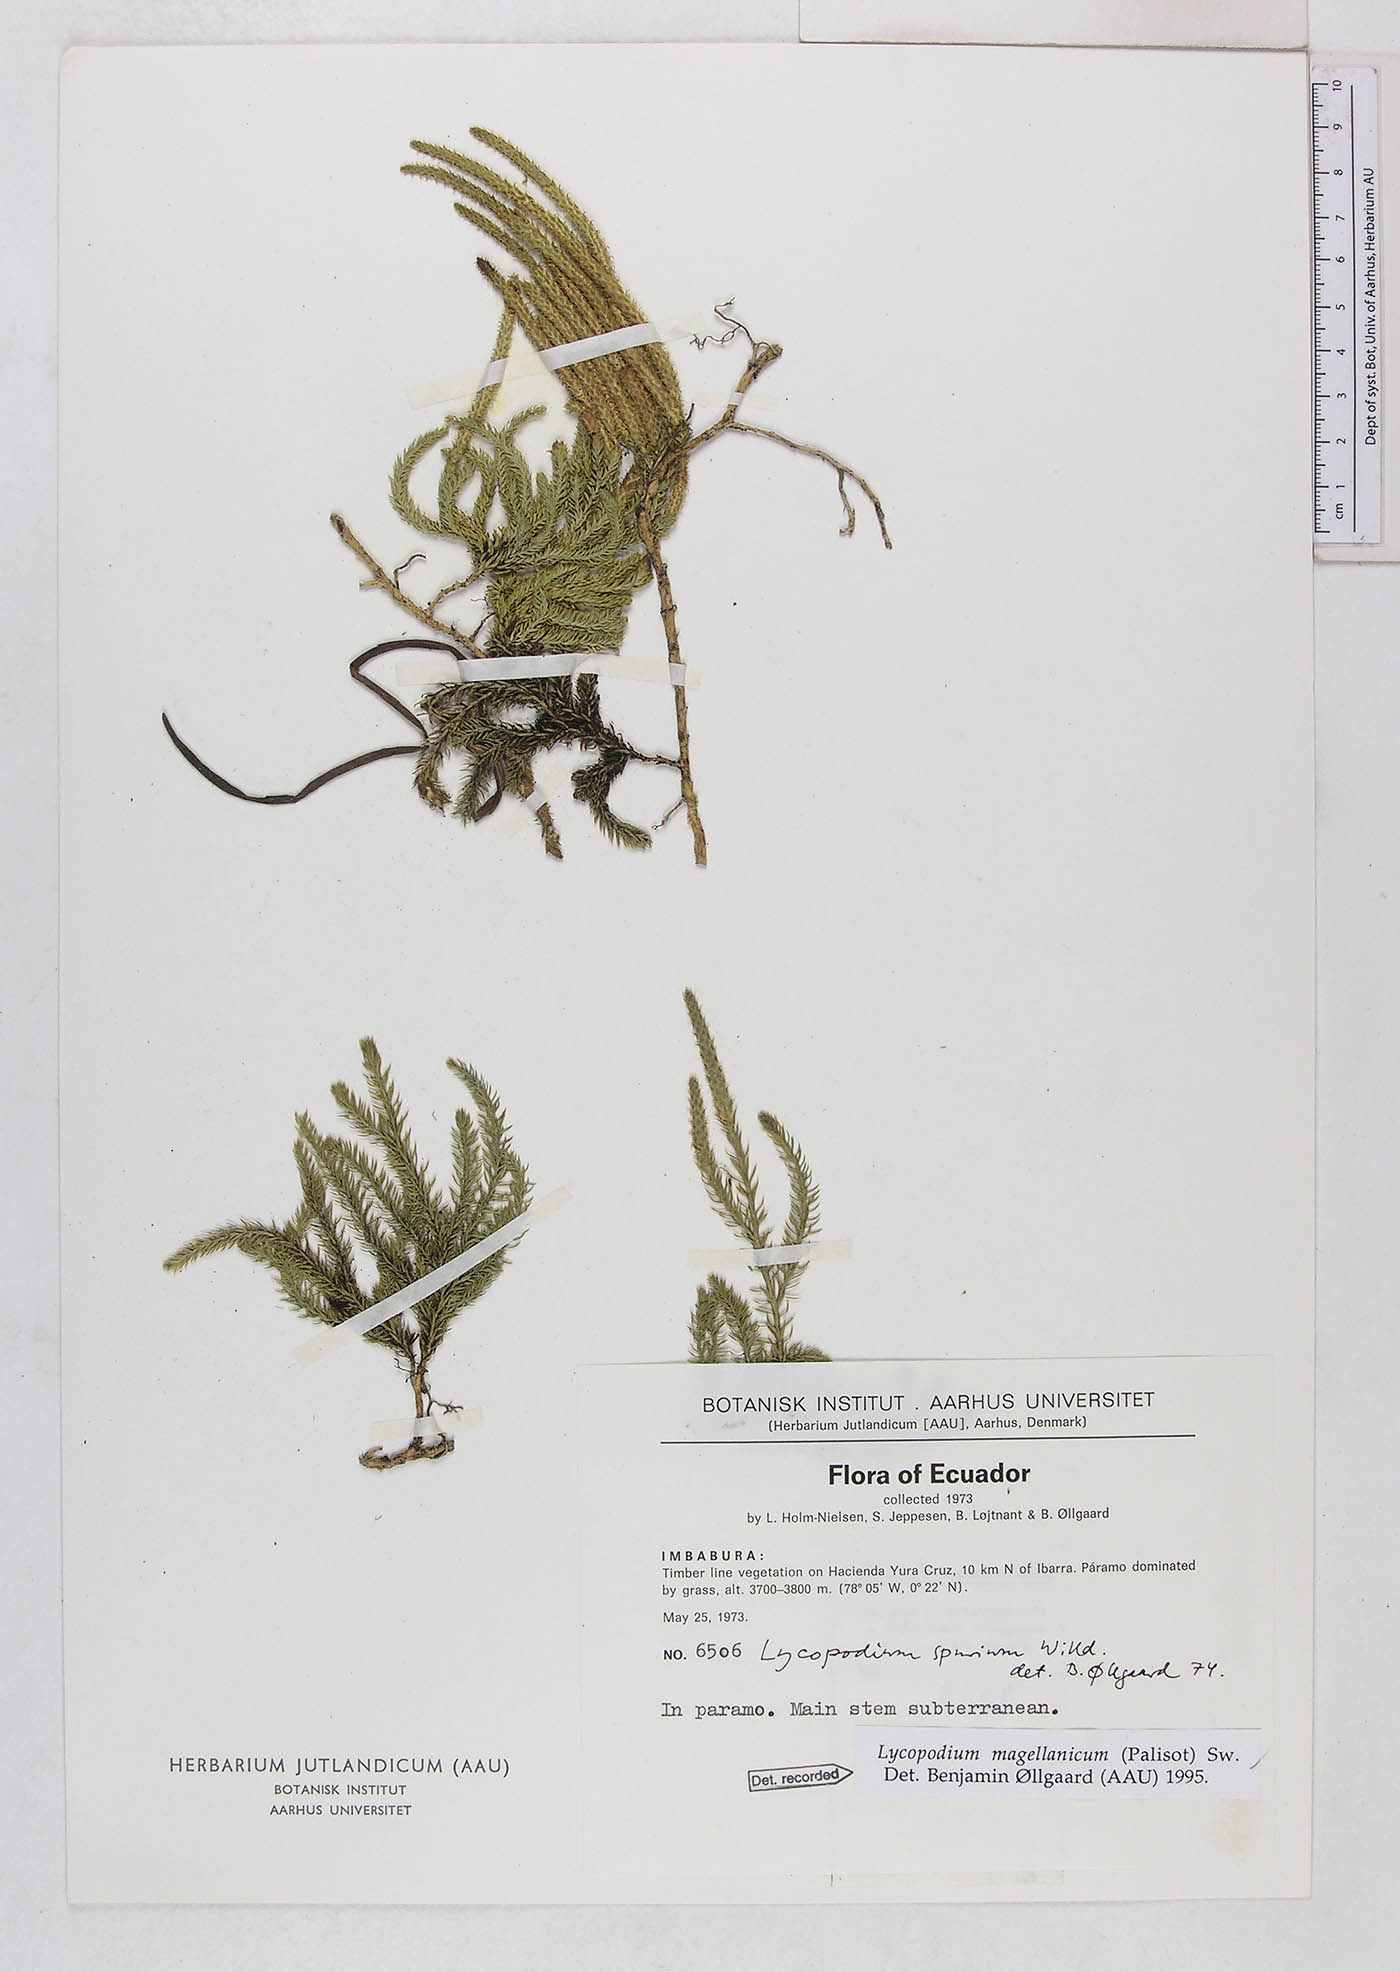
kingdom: Plantae
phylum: Tracheophyta
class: Lycopodiopsida
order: Lycopodiales
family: Lycopodiaceae
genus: Austrolycopodium
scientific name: Austrolycopodium magellanicum
